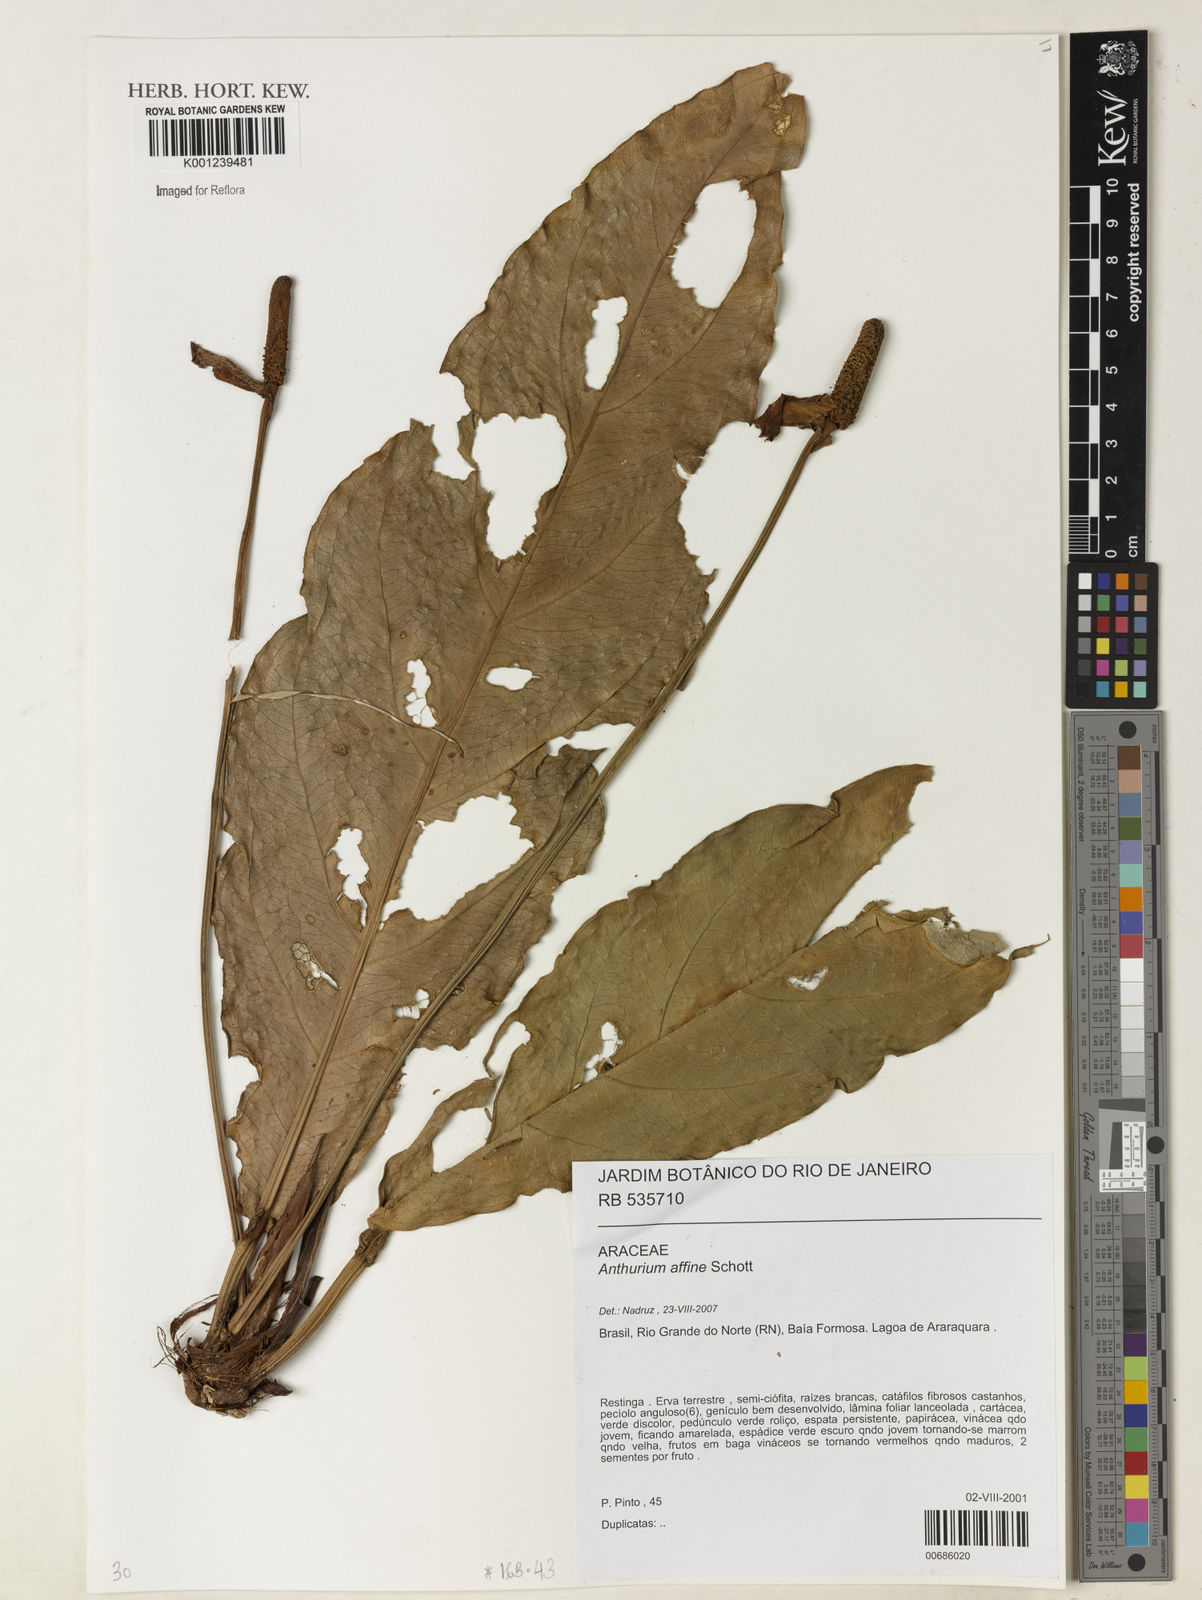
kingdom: Plantae
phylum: Tracheophyta
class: Liliopsida
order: Alismatales
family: Araceae
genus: Anthurium
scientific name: Anthurium affine
